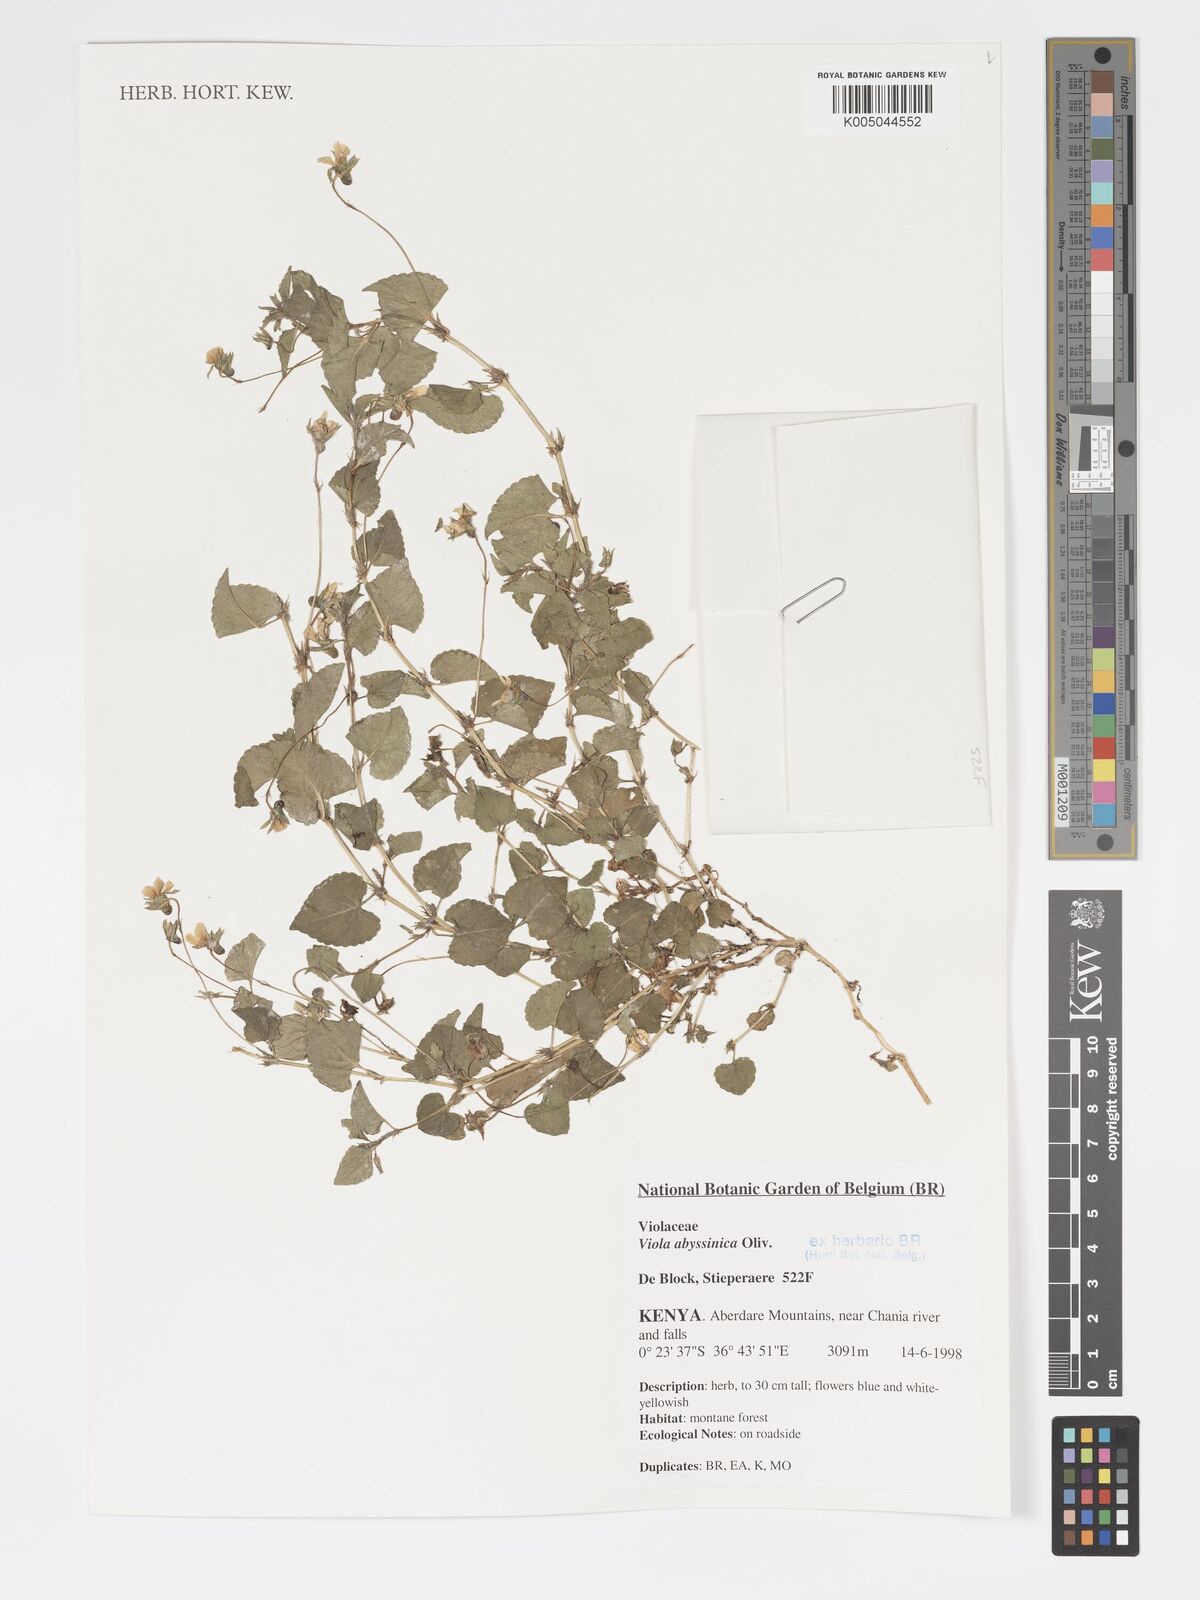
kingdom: Plantae
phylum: Tracheophyta
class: Magnoliopsida
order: Malpighiales
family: Violaceae
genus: Viola
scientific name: Viola abyssinica
